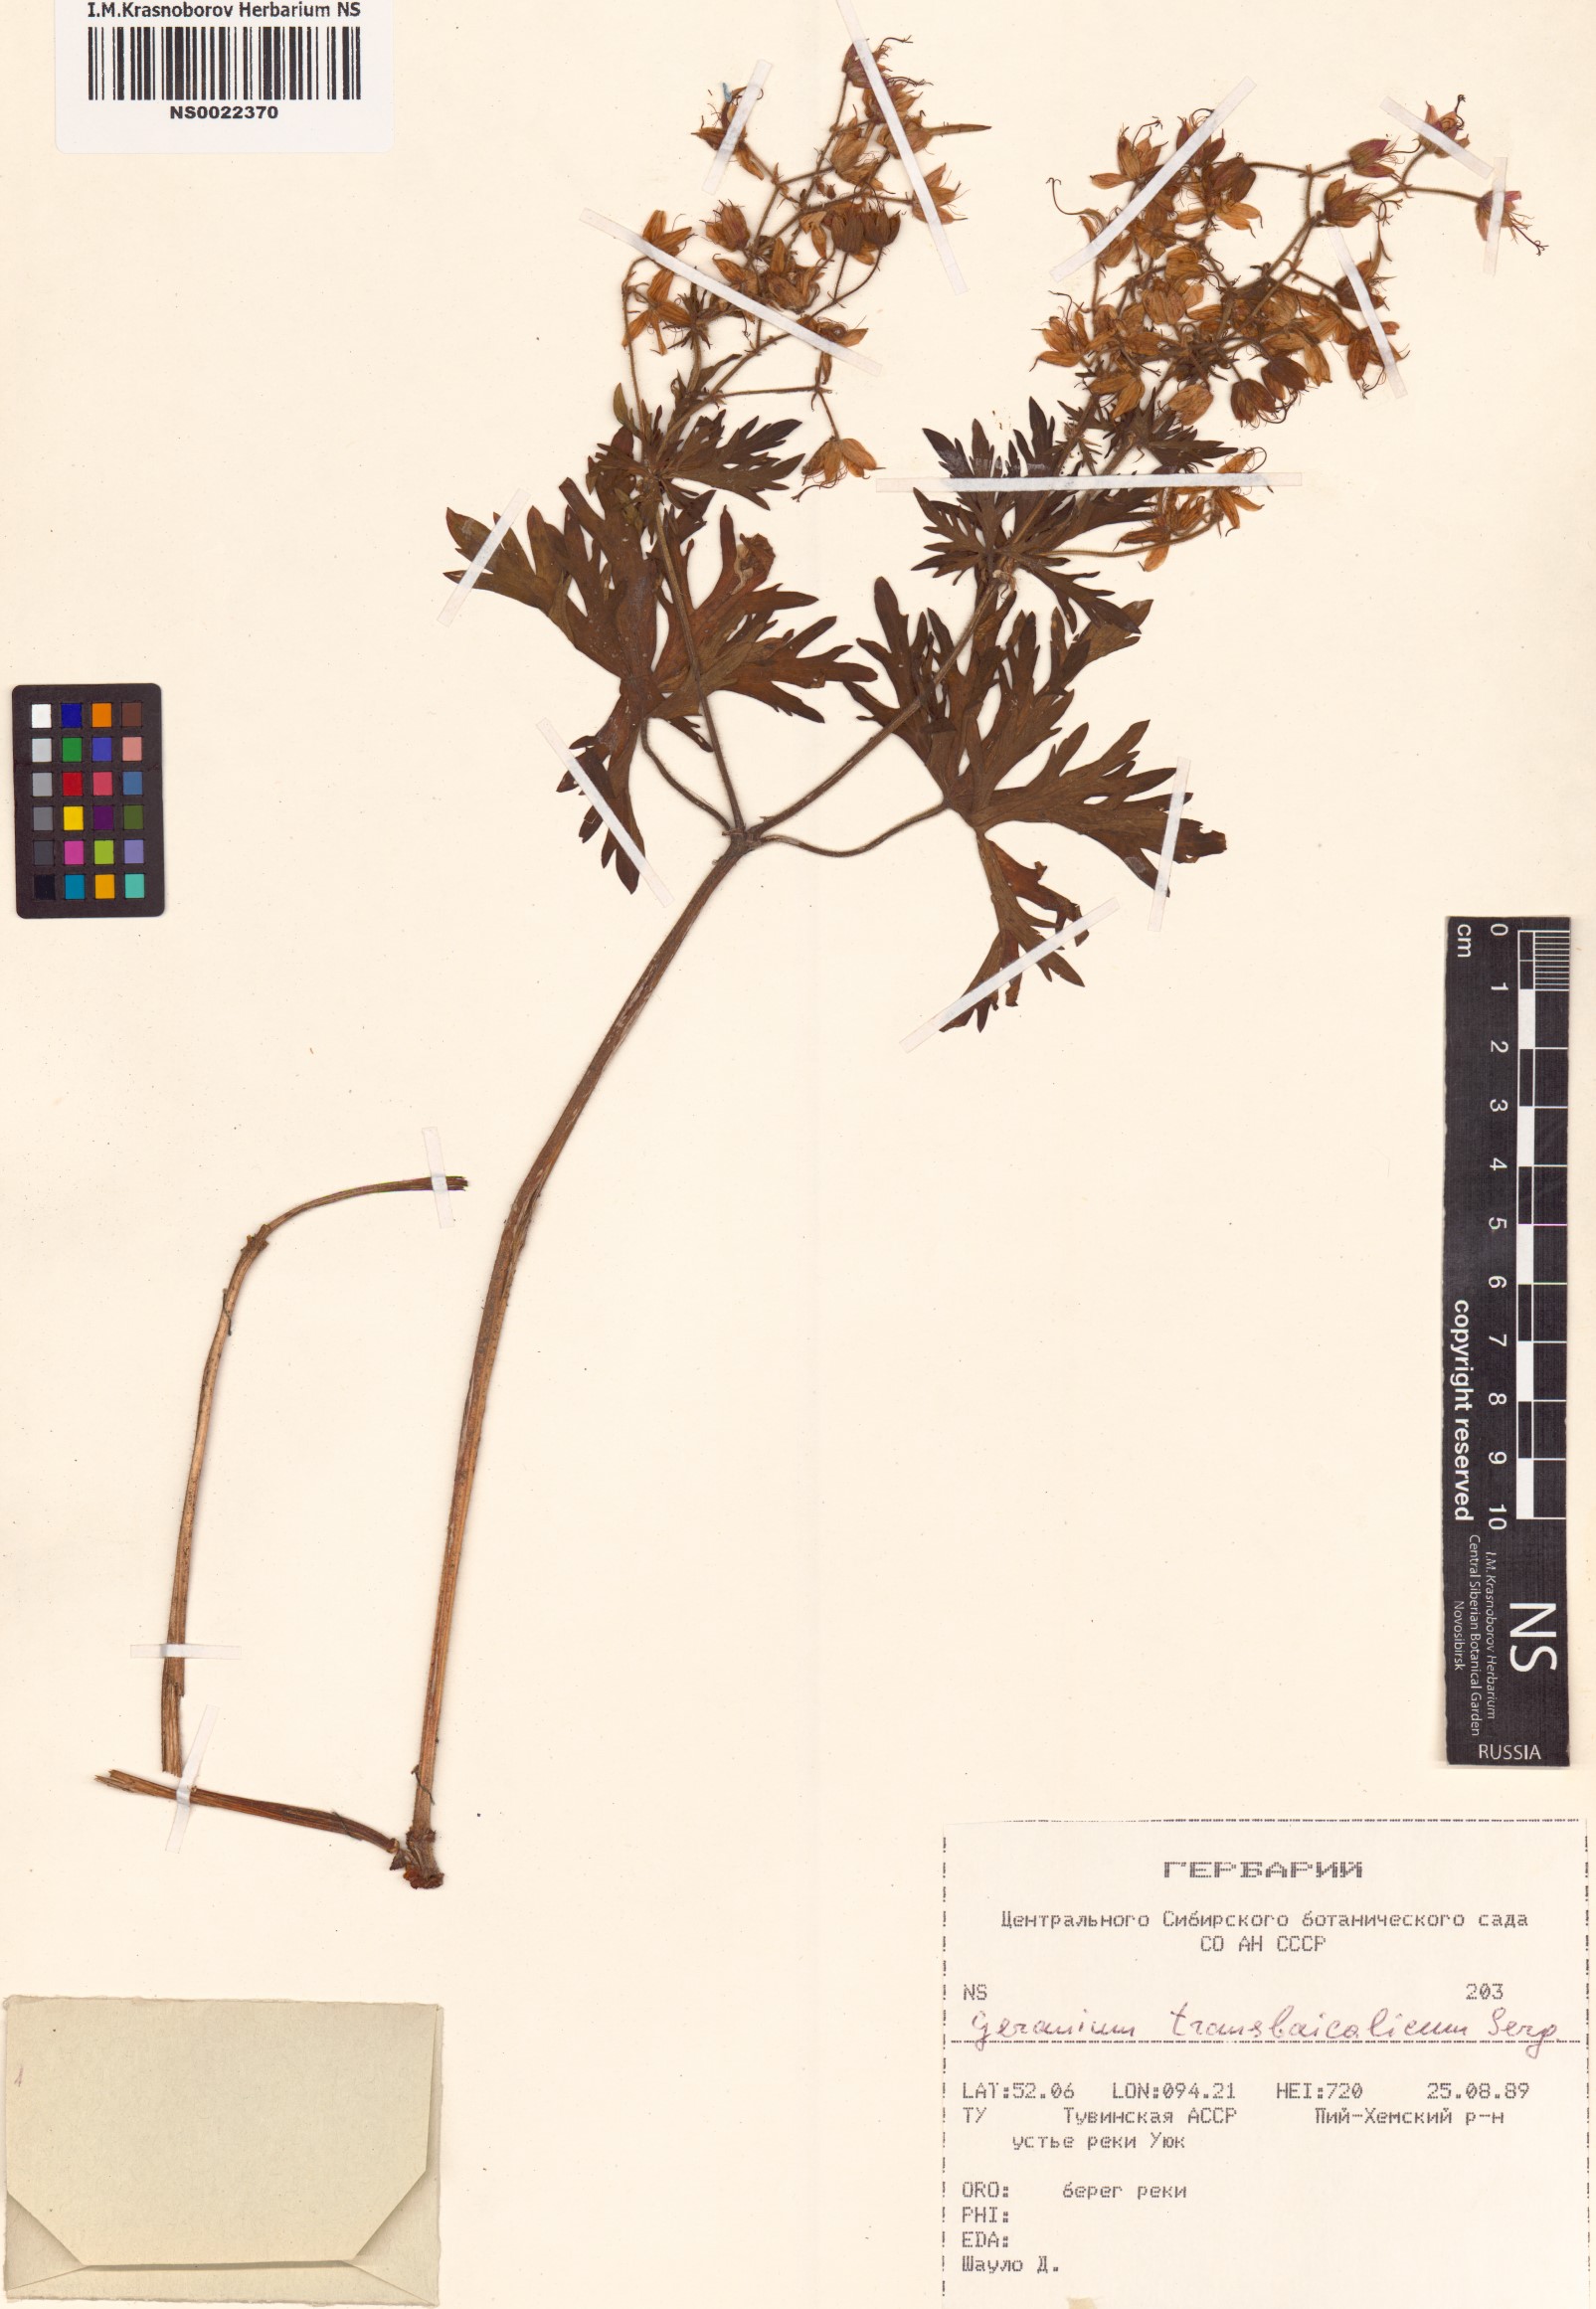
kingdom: Plantae
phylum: Tracheophyta
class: Magnoliopsida
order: Geraniales
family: Geraniaceae
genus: Geranium
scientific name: Geranium pratense
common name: Meadow crane's-bill
